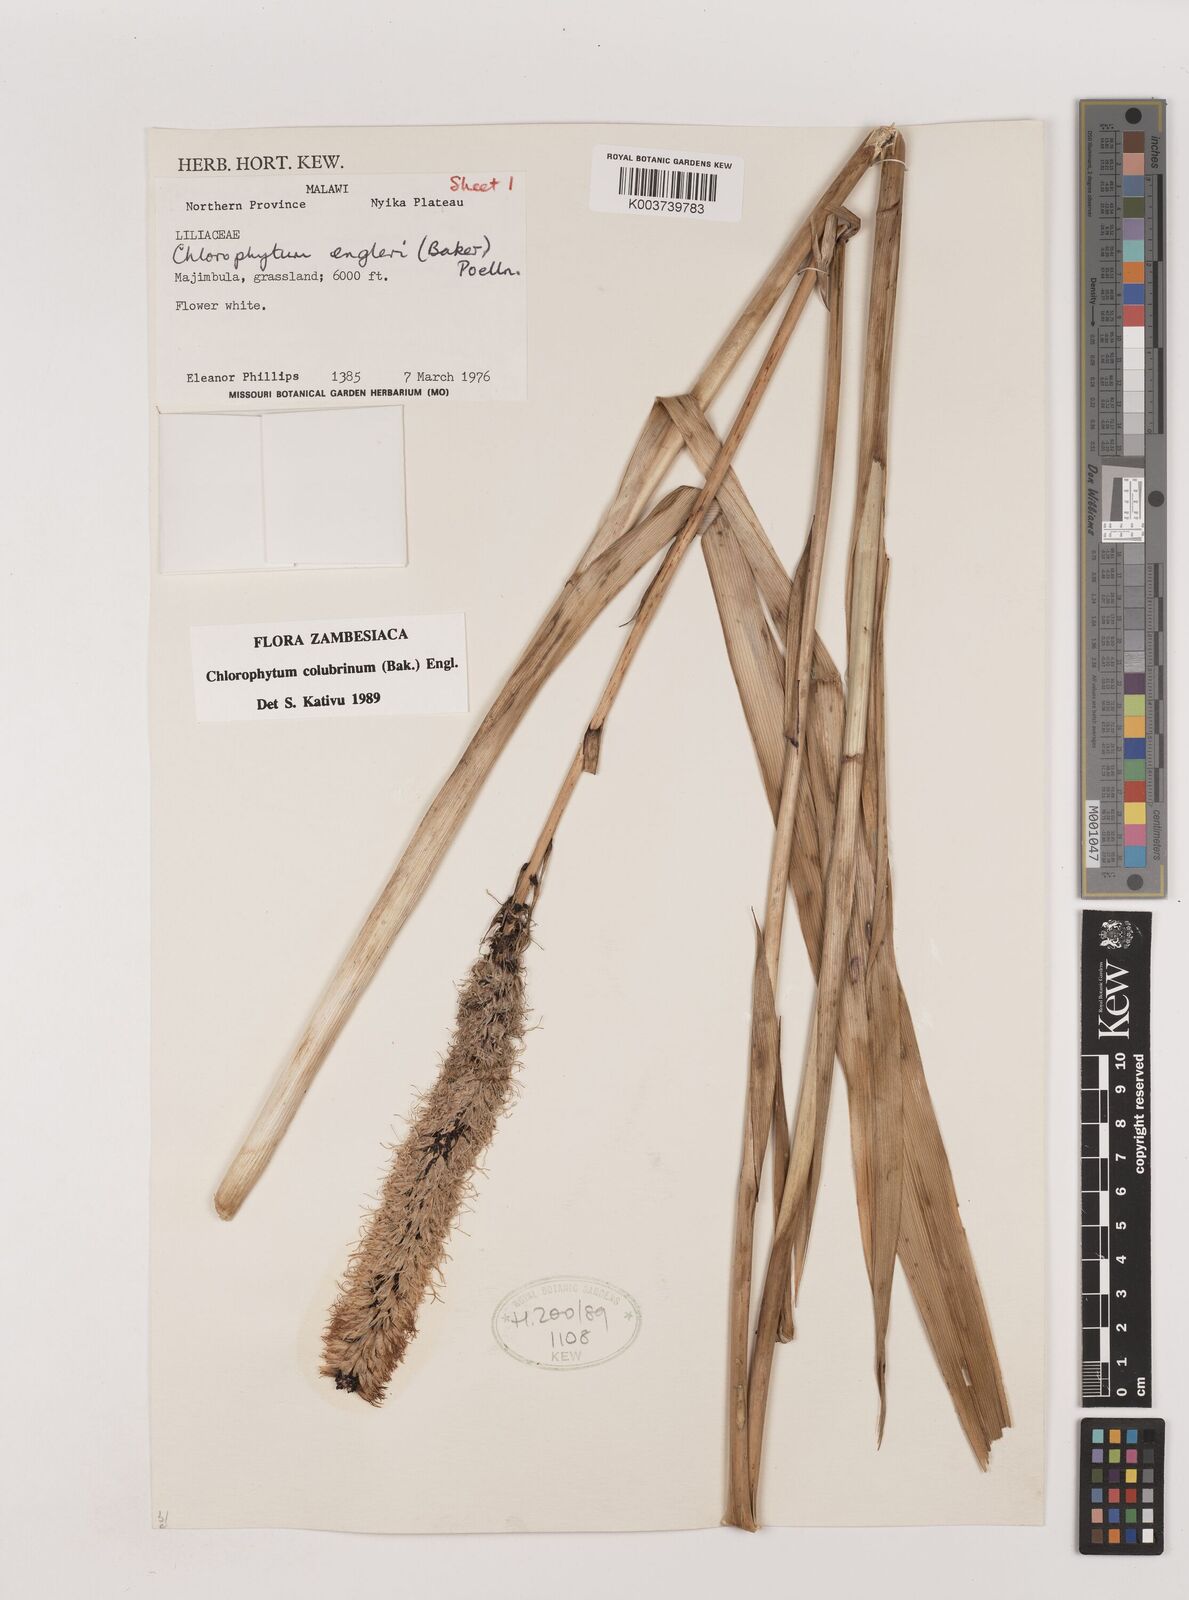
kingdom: Plantae
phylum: Tracheophyta
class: Liliopsida
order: Asparagales
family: Asparagaceae
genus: Chlorophytum
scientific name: Chlorophytum colubrinum
